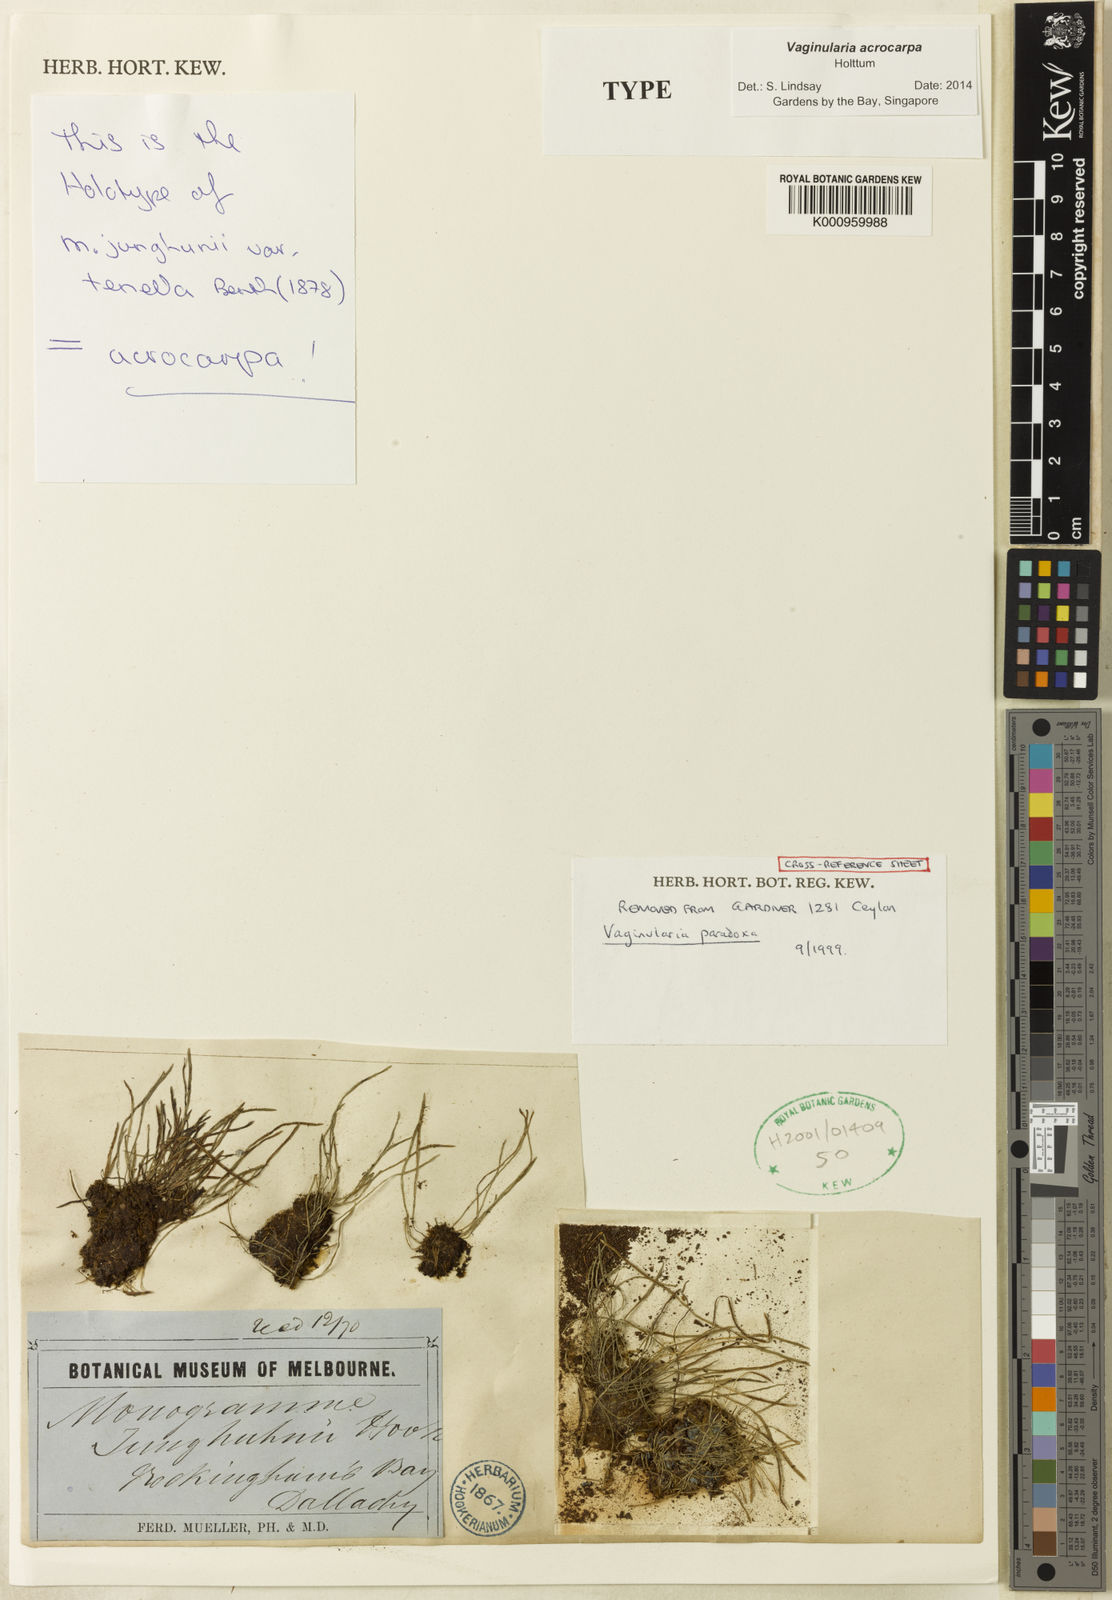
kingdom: Plantae
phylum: Tracheophyta
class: Polypodiopsida
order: Polypodiales
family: Pteridaceae
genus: Vaginularia
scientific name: Vaginularia acrocarpa
